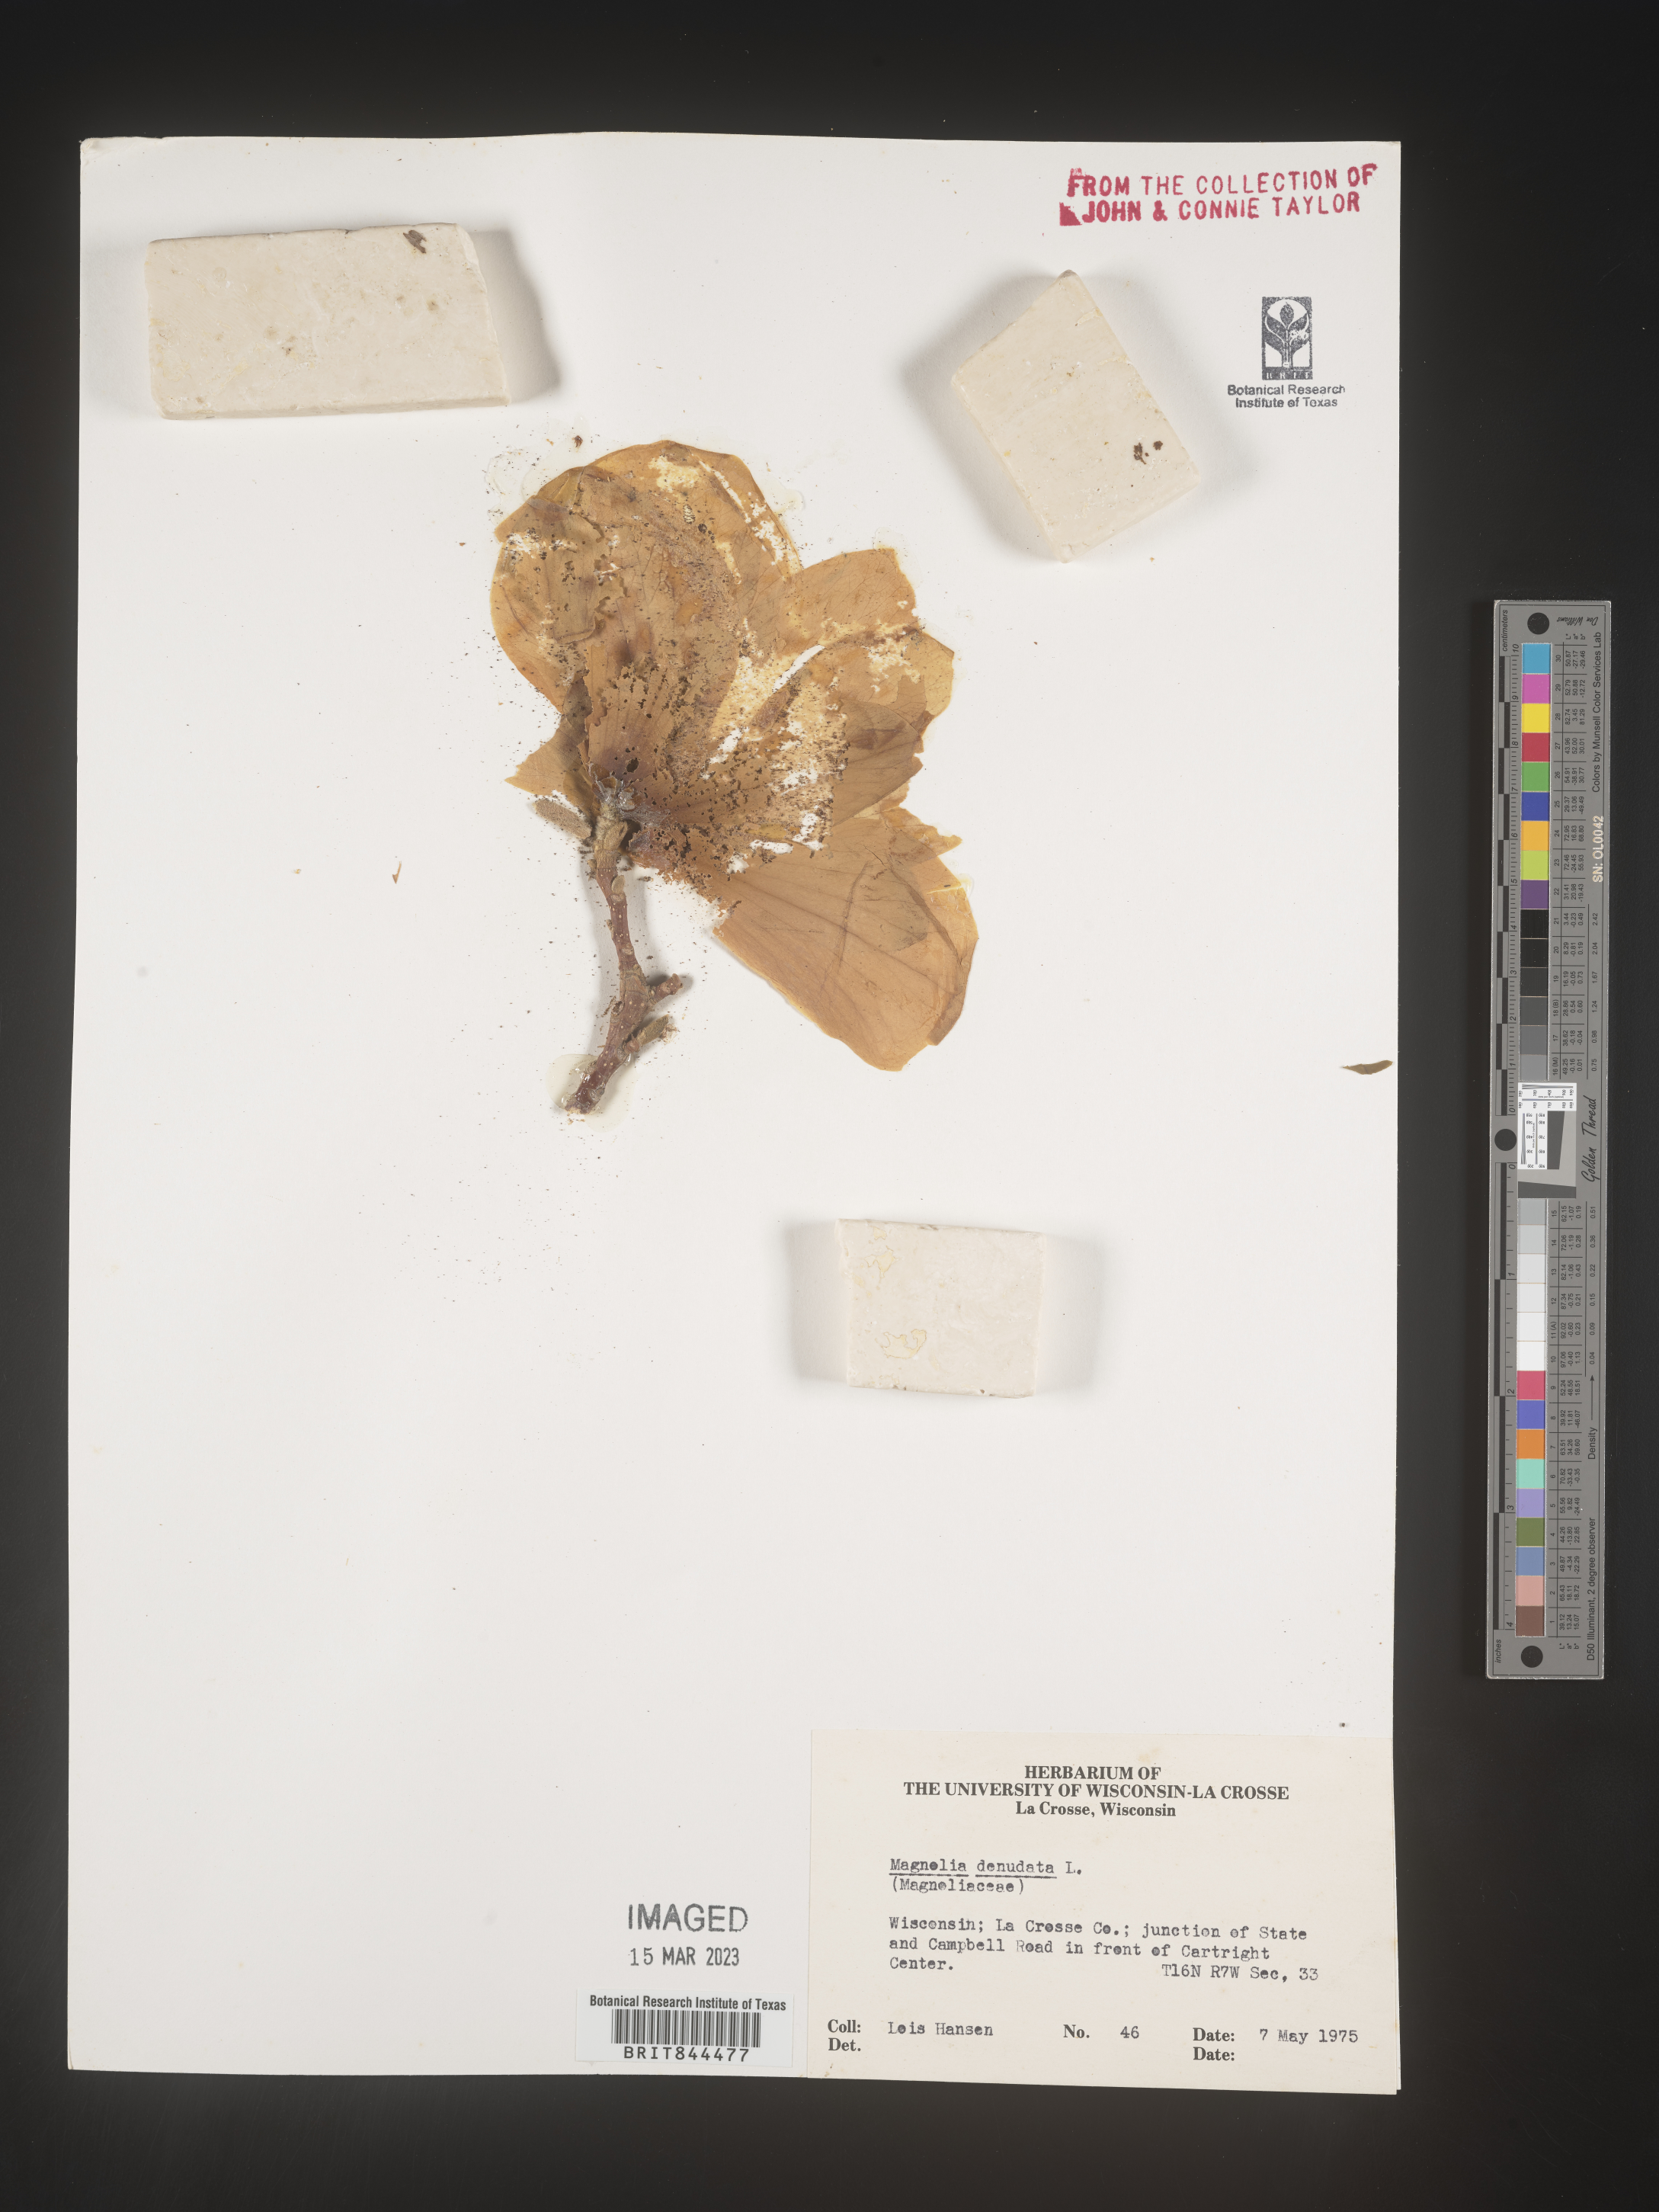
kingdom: Plantae
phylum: Tracheophyta
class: Magnoliopsida
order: Magnoliales
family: Magnoliaceae
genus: Magnolia
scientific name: Magnolia
